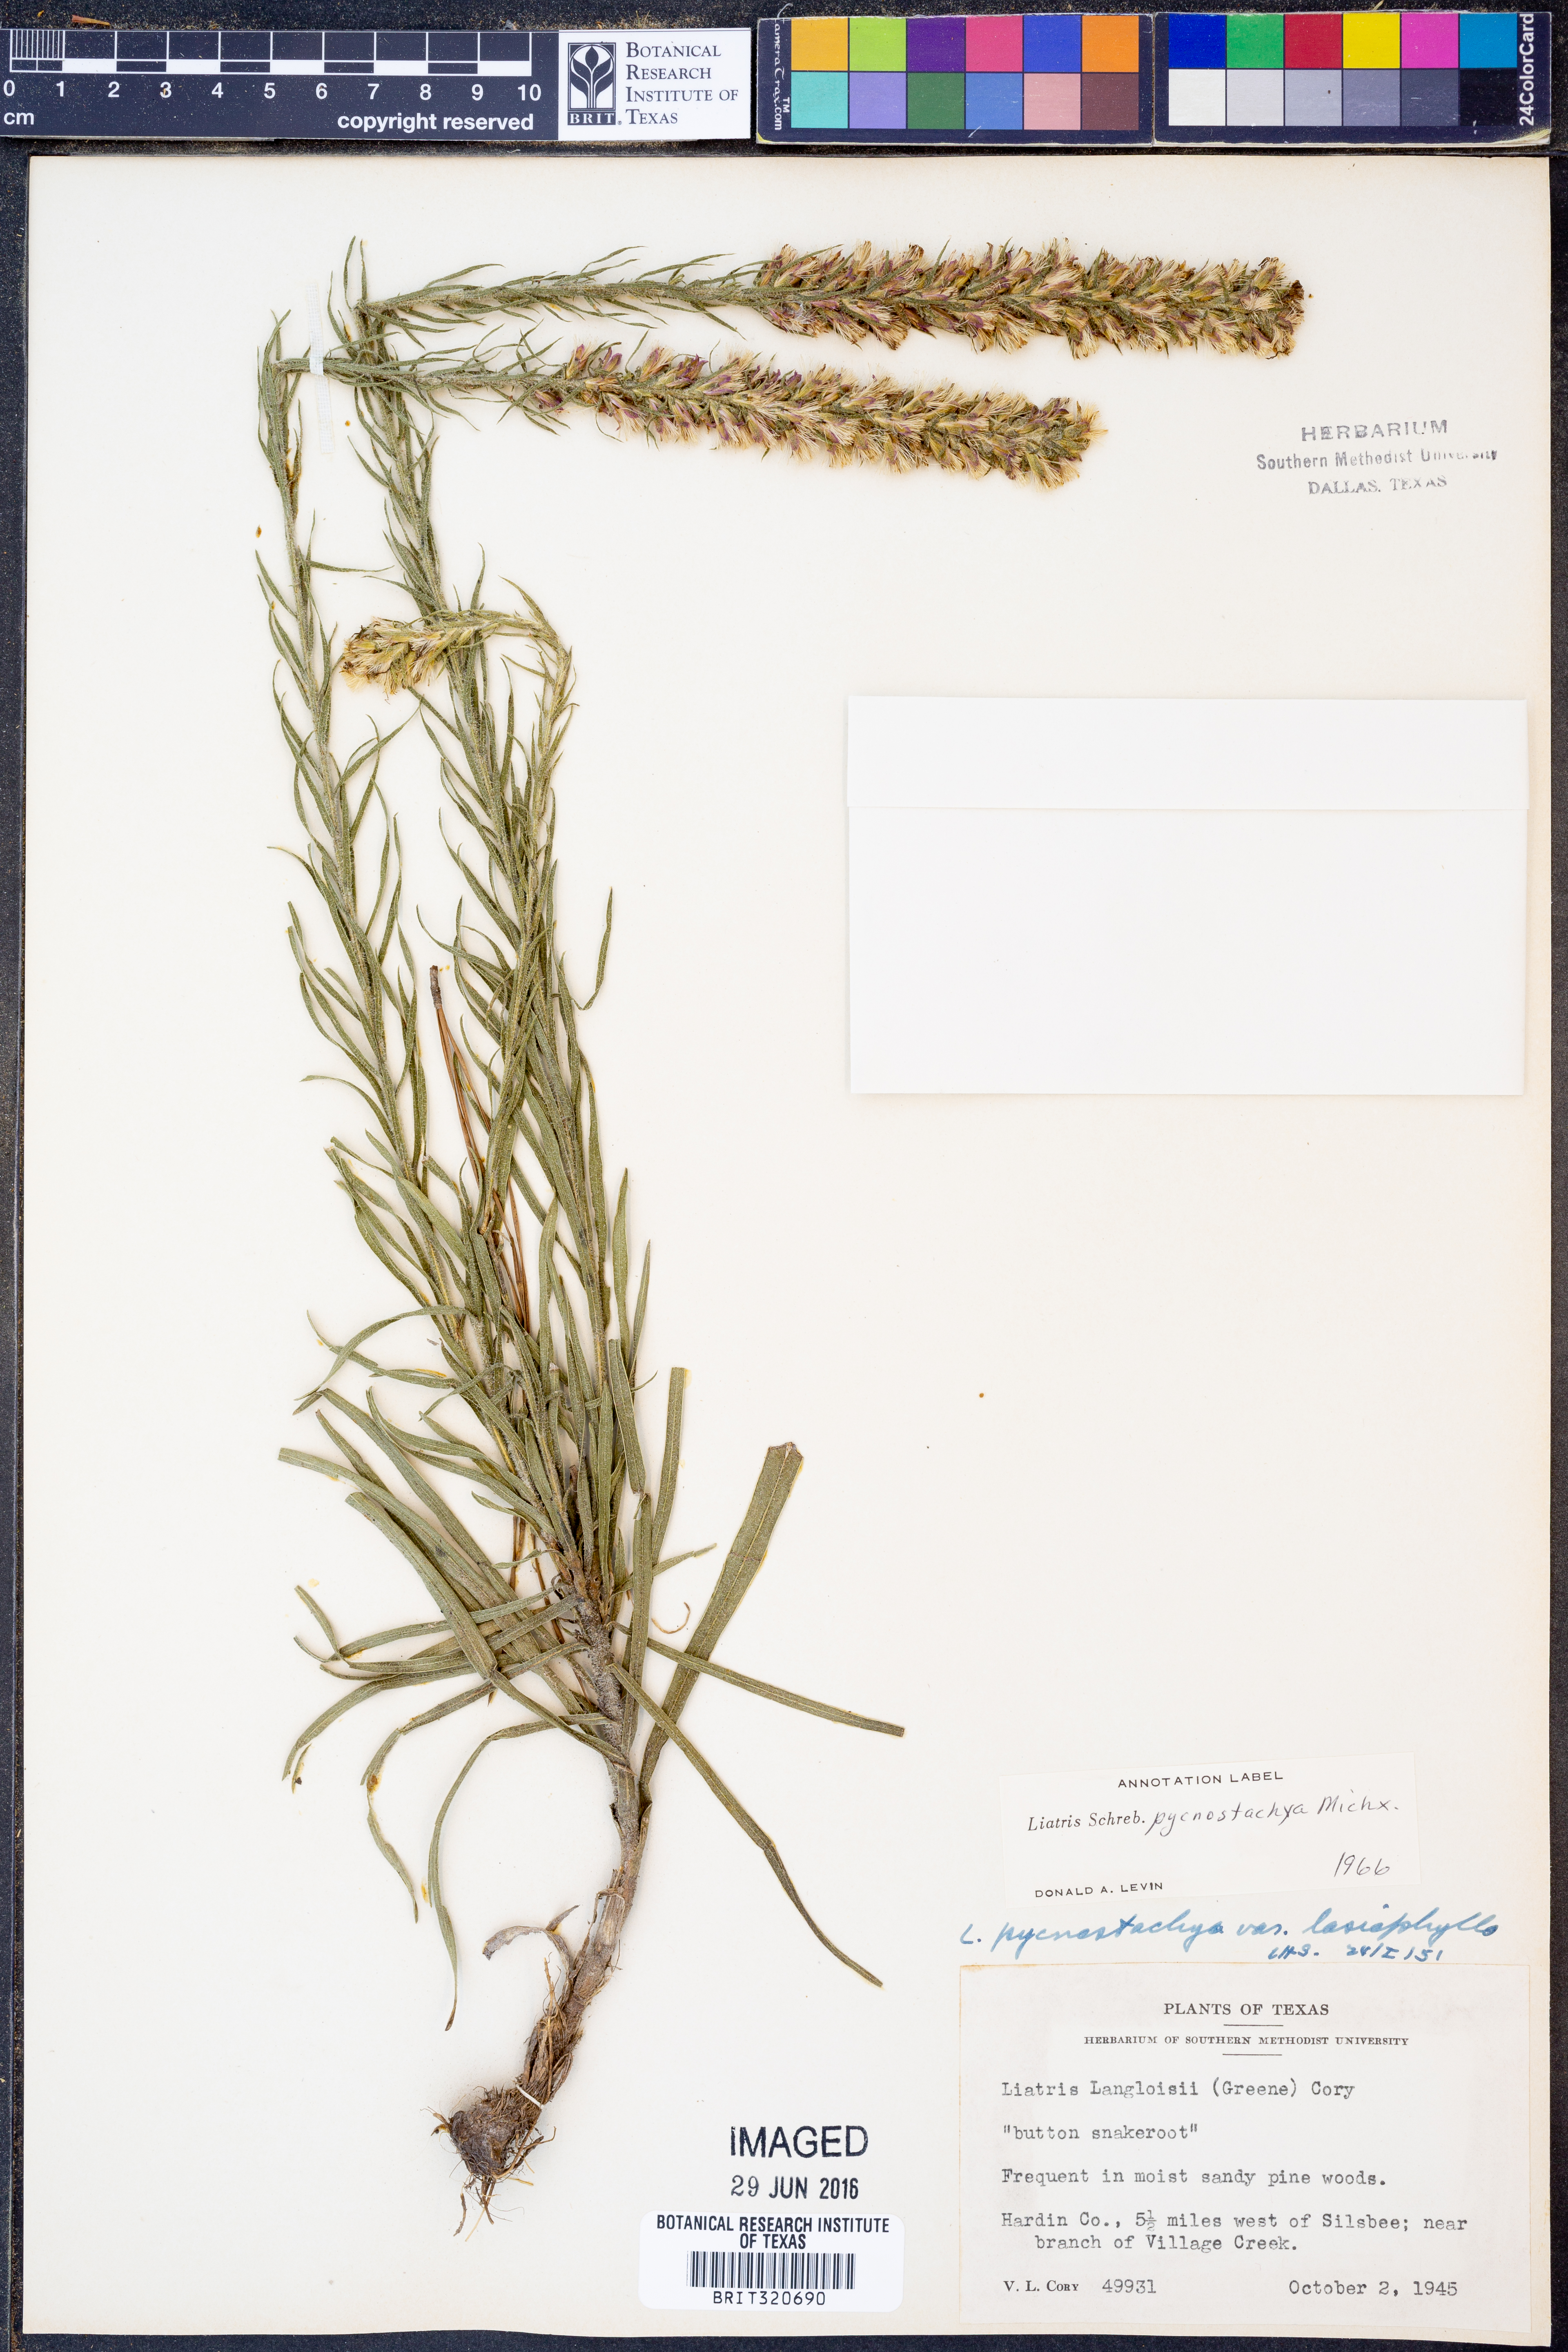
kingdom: Plantae
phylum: Tracheophyta
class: Magnoliopsida
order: Asterales
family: Asteraceae
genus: Liatris
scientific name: Liatris pycnostachya
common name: Cattail gayfeather
